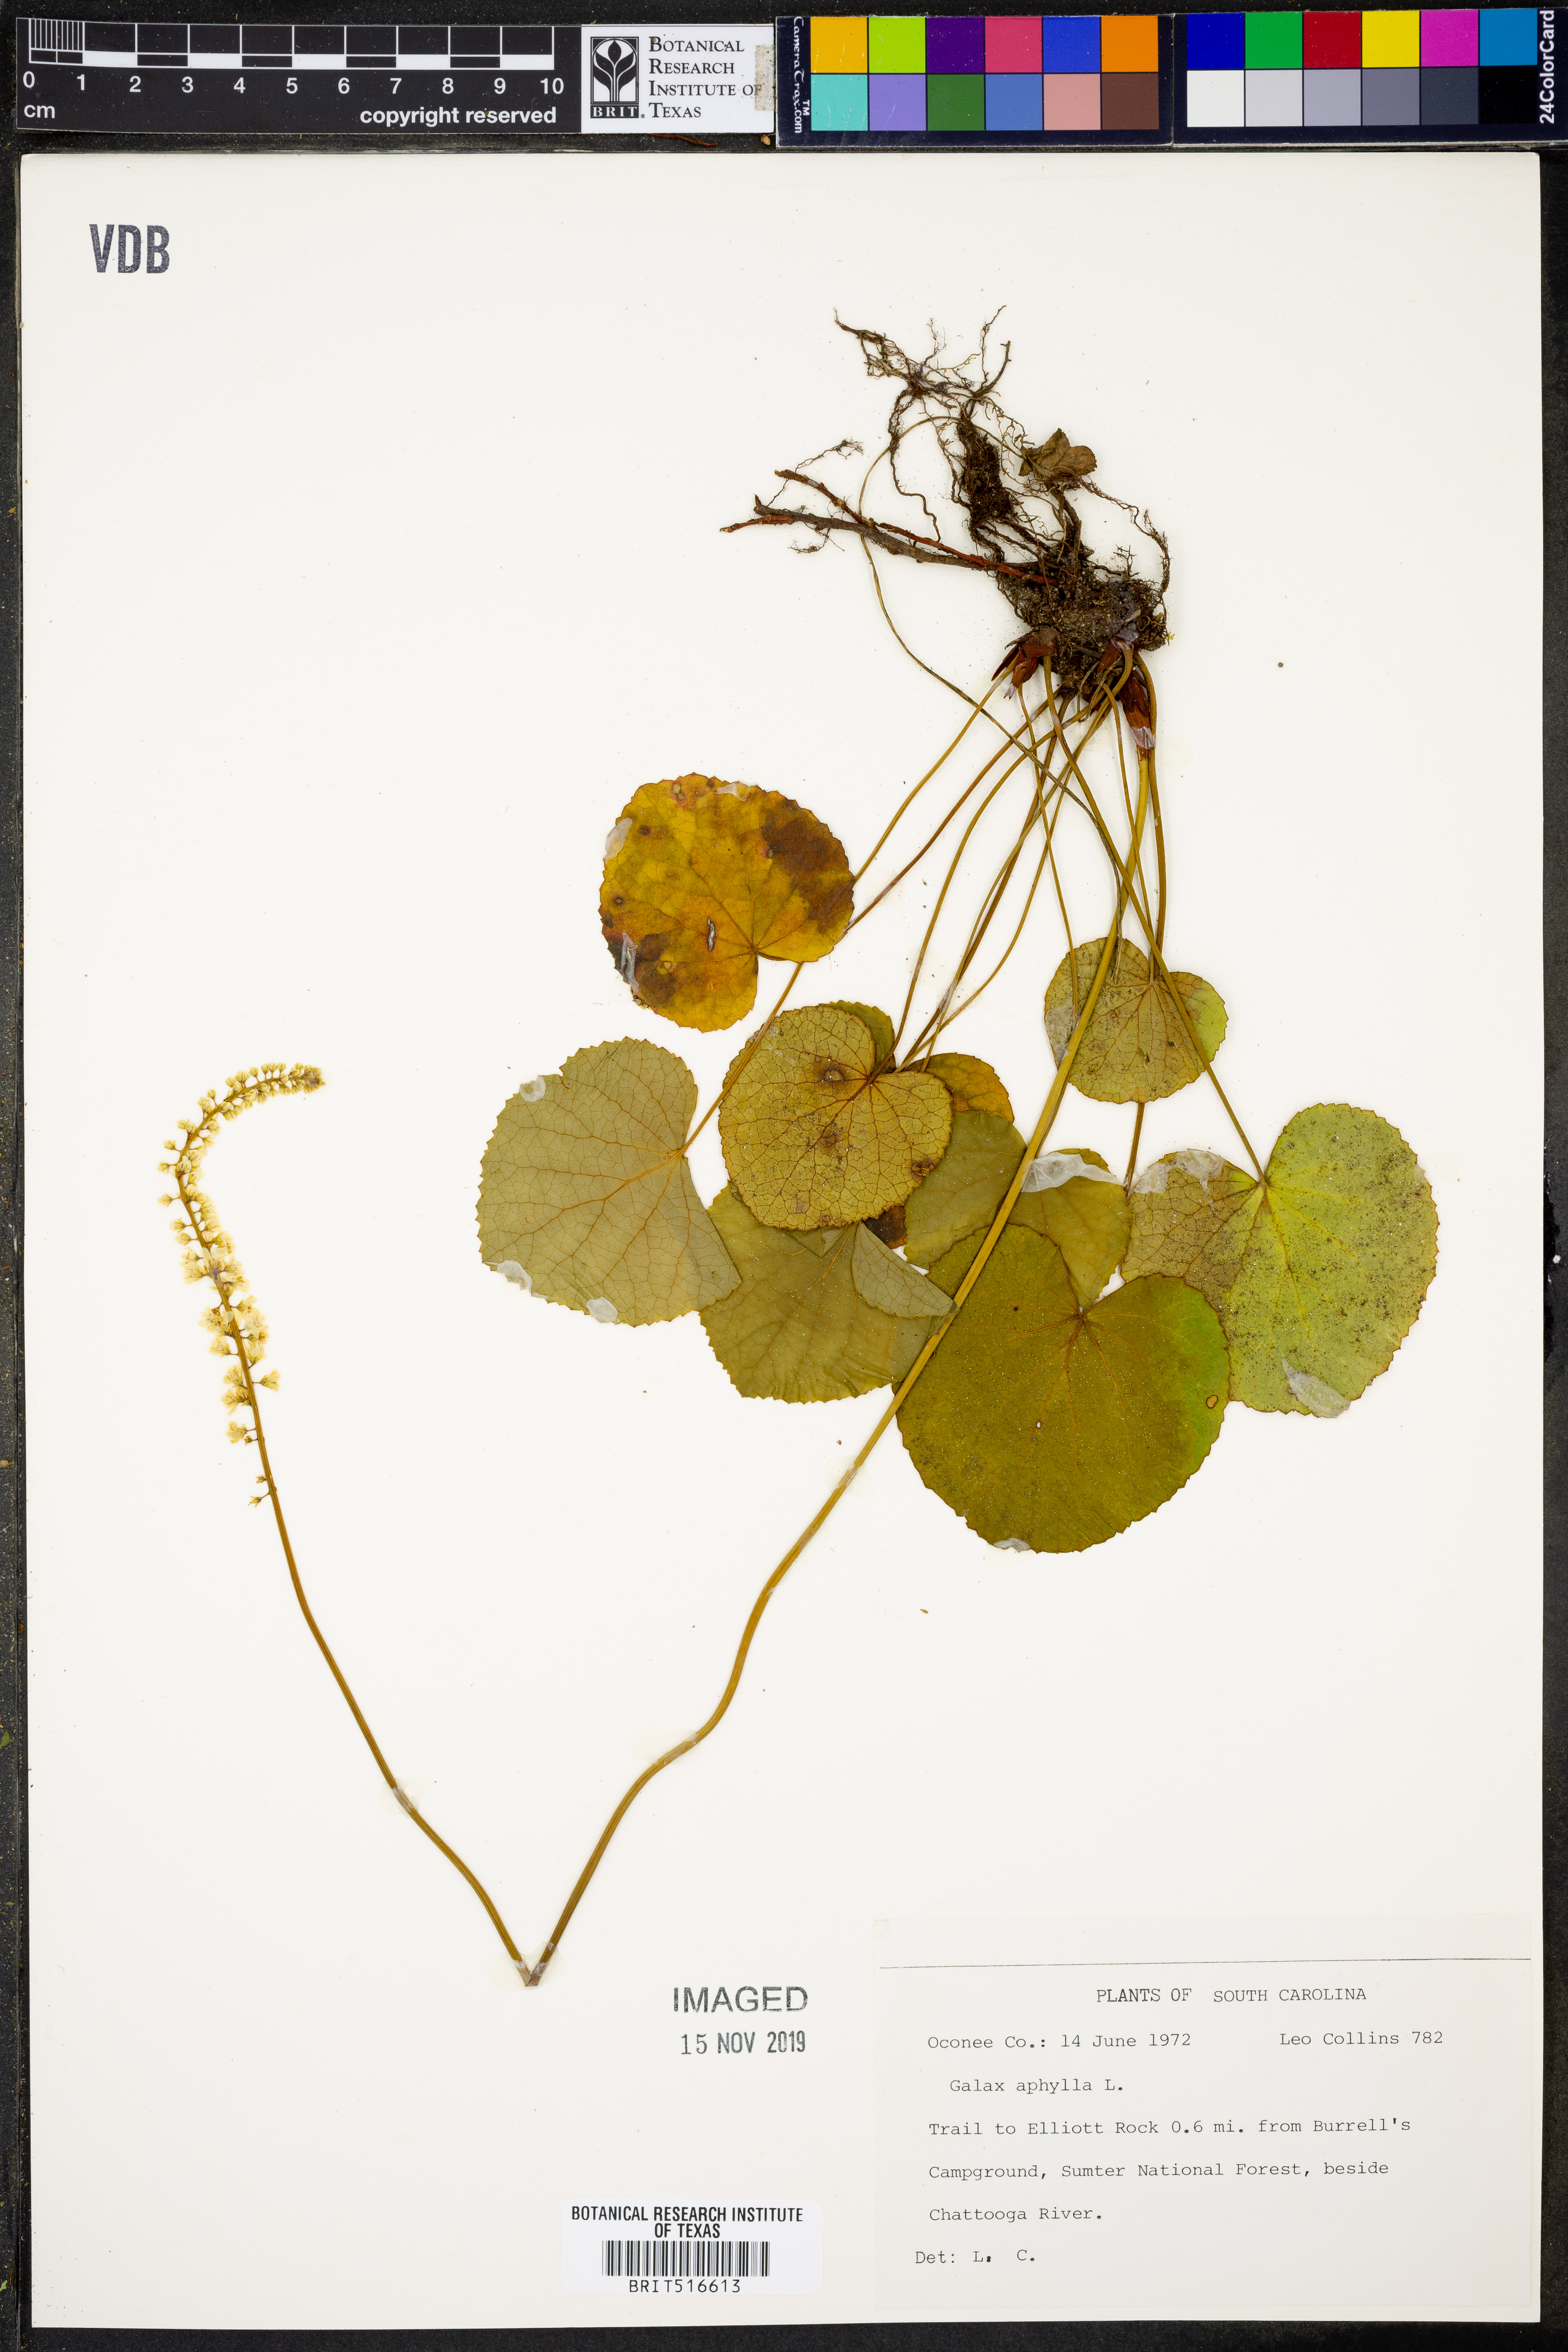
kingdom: Plantae
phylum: Tracheophyta
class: Magnoliopsida
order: Boraginales
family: Hydrophyllaceae
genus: Nemophila
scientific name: Nemophila aphylla
